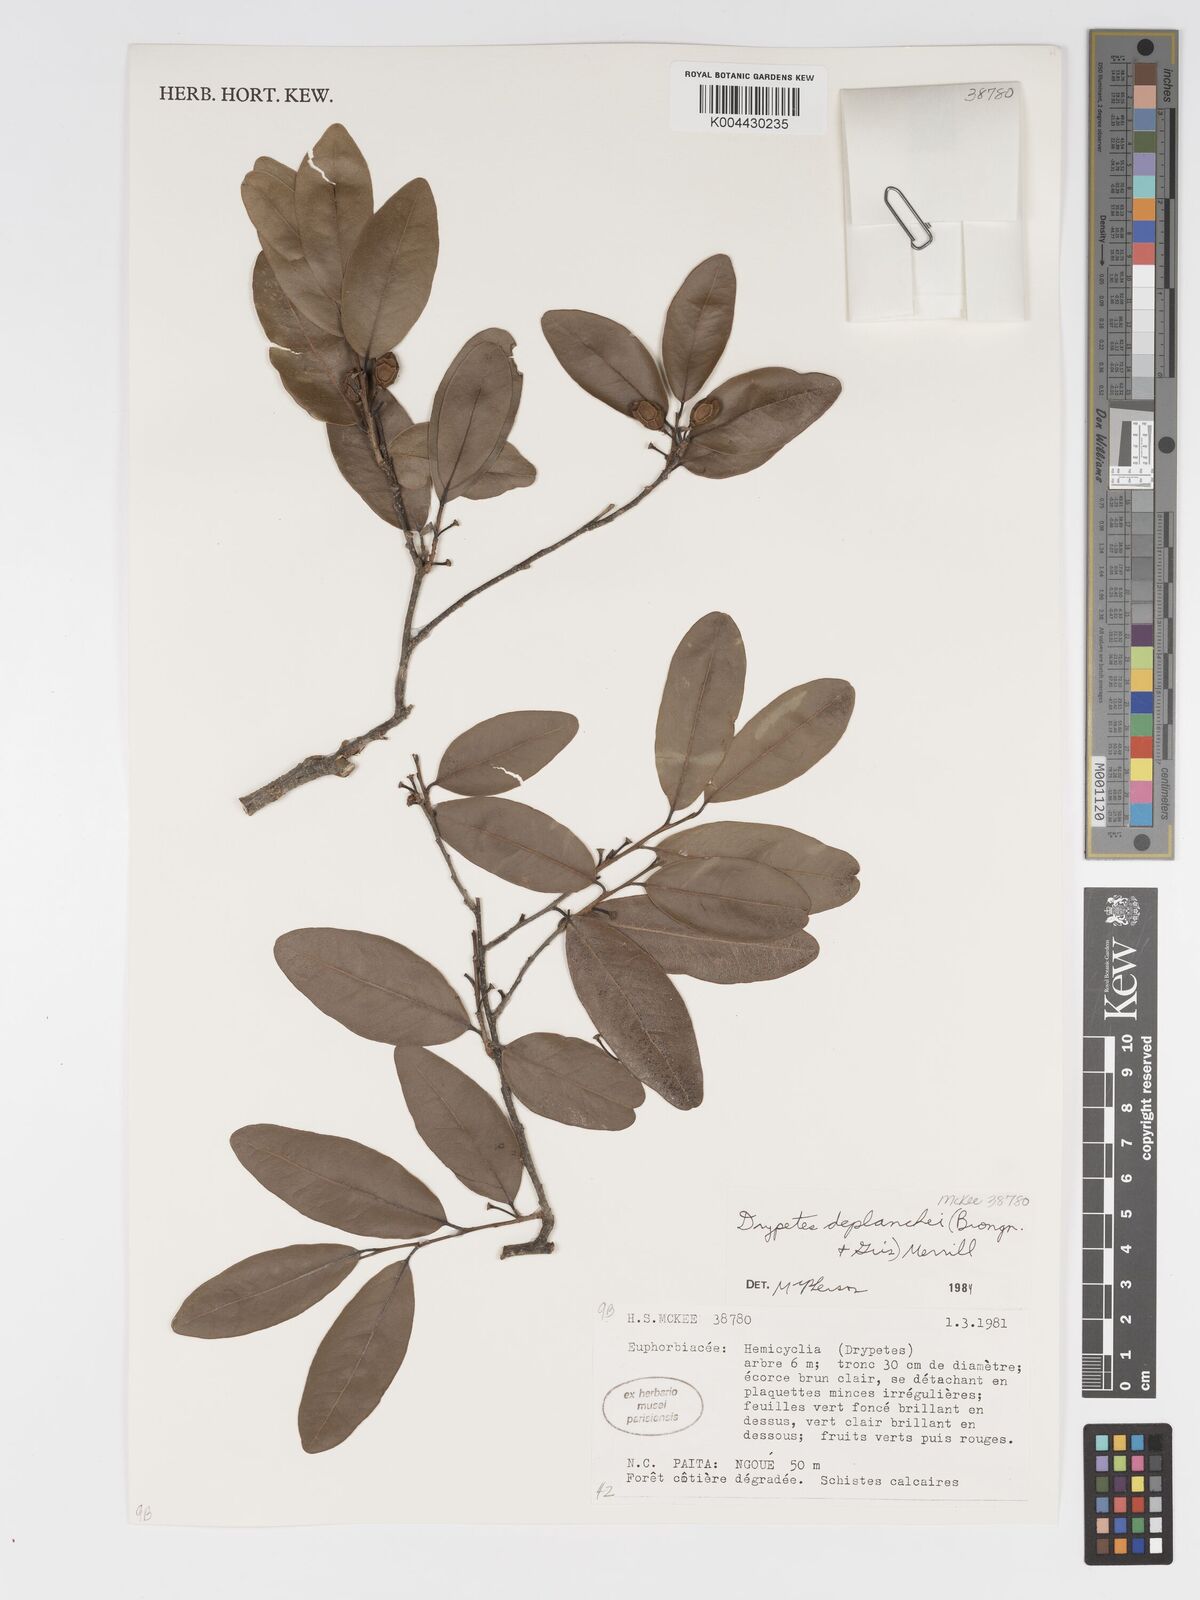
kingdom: Plantae
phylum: Tracheophyta
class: Magnoliopsida
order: Malpighiales
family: Putranjivaceae
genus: Drypetes
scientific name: Drypetes deplanchei
